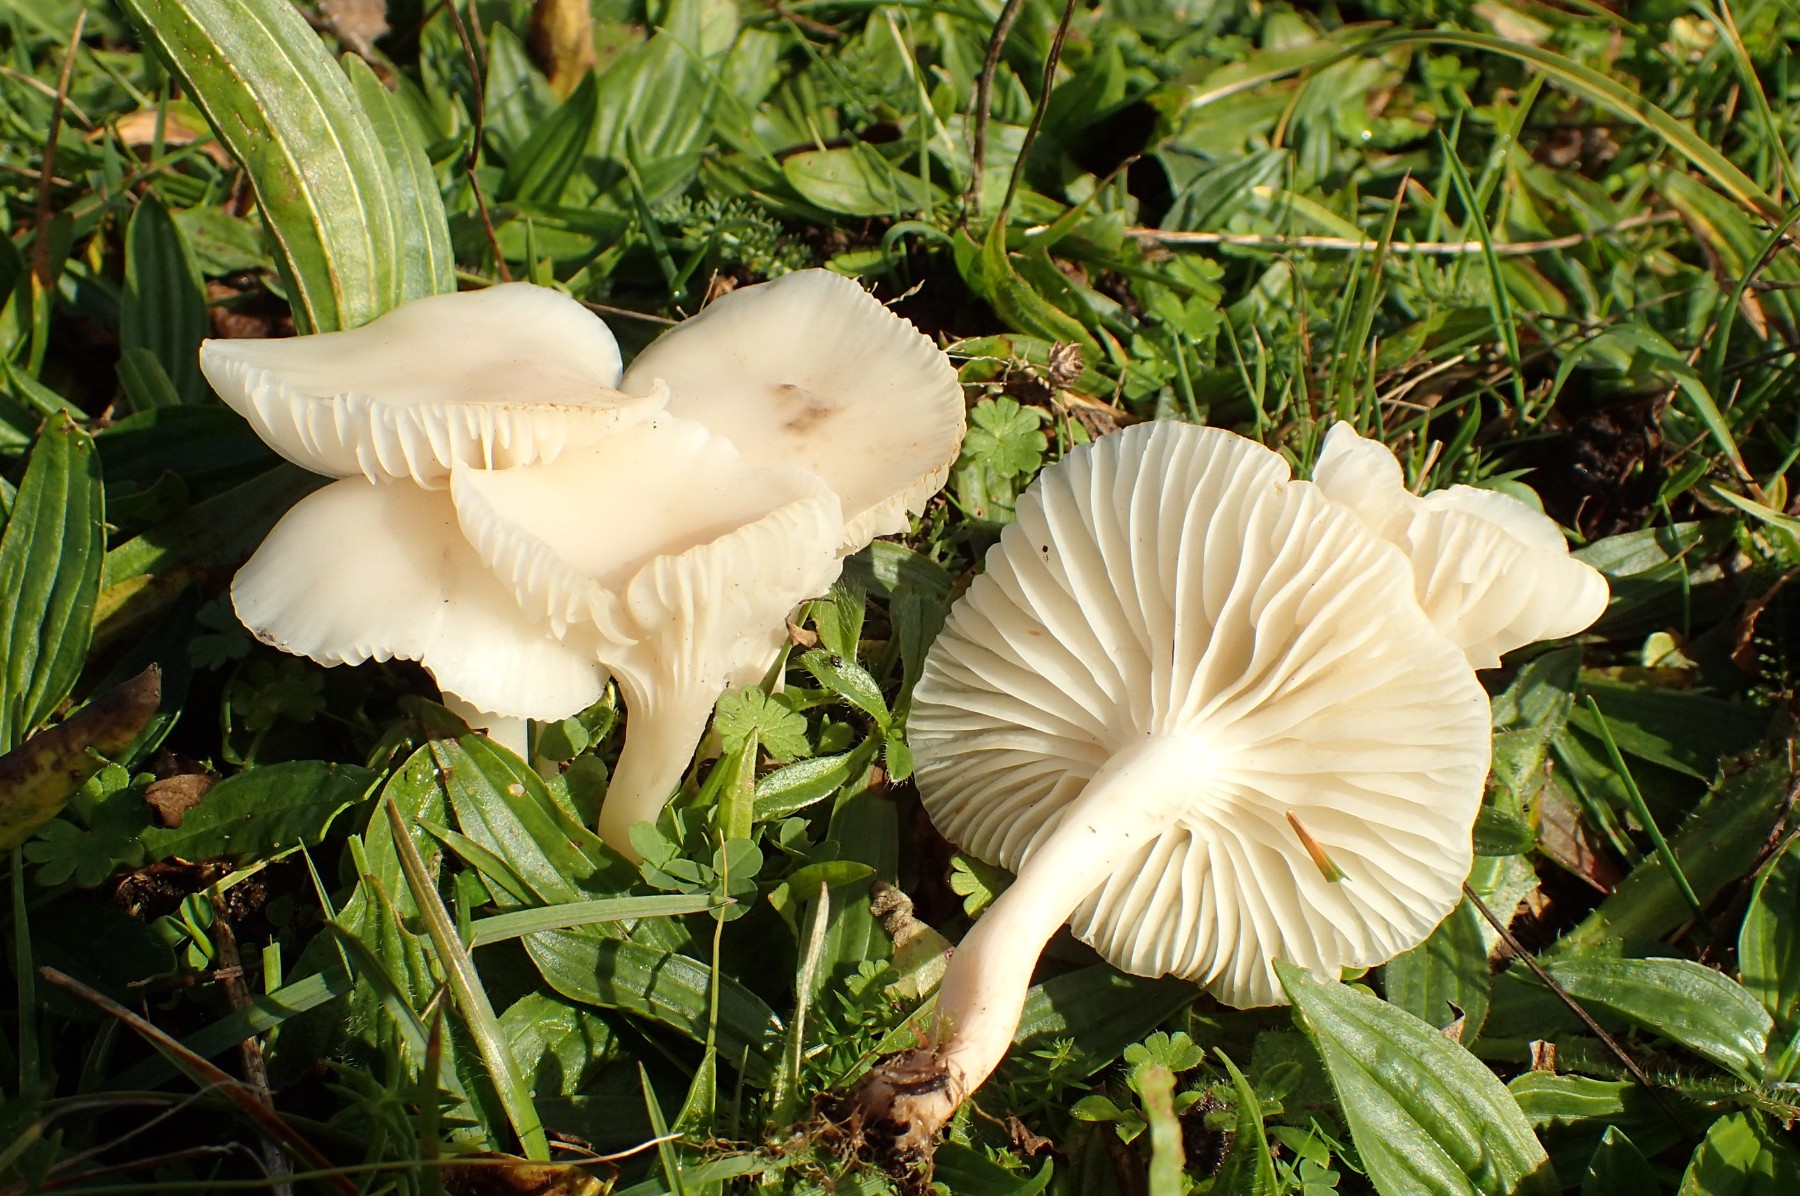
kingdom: Fungi
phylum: Basidiomycota
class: Agaricomycetes
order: Agaricales
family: Hygrophoraceae
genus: Cuphophyllus
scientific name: Cuphophyllus virgineus
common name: snehvid vokshat
